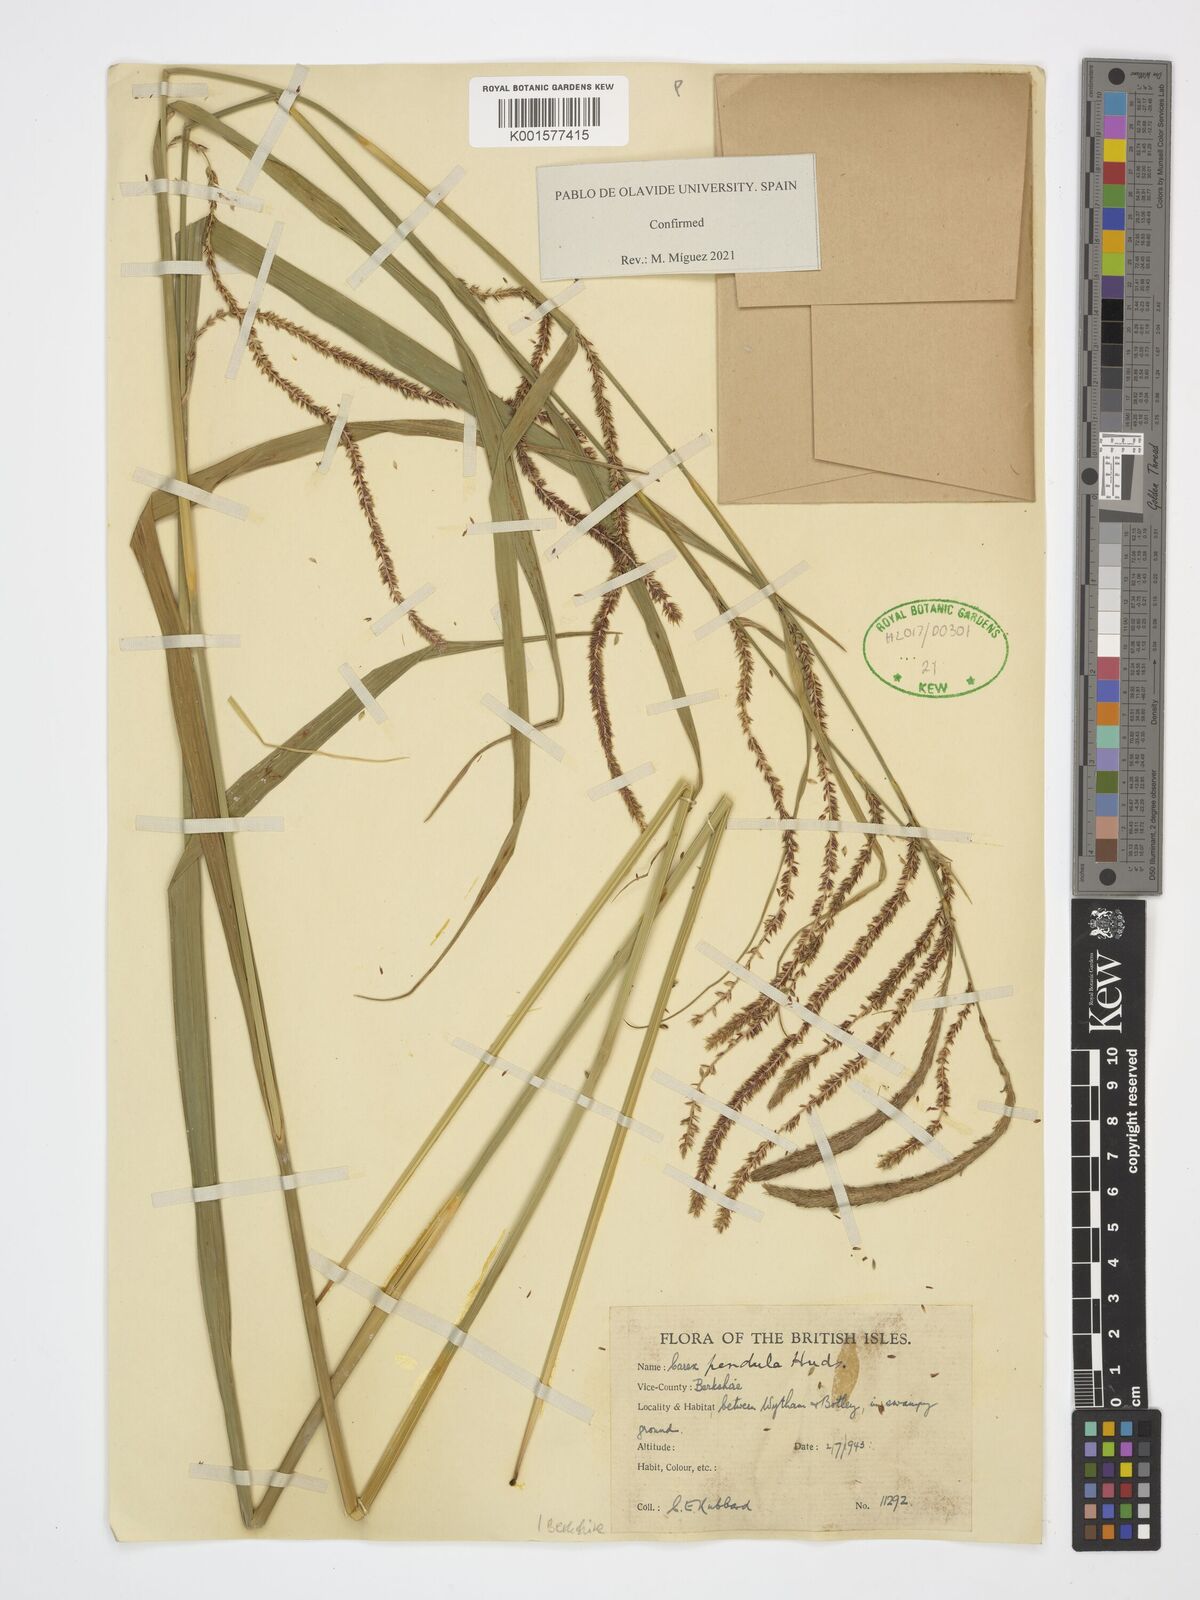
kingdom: Plantae
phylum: Tracheophyta
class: Liliopsida
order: Poales
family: Cyperaceae
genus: Carex
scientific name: Carex pendula
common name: Pendulous sedge
